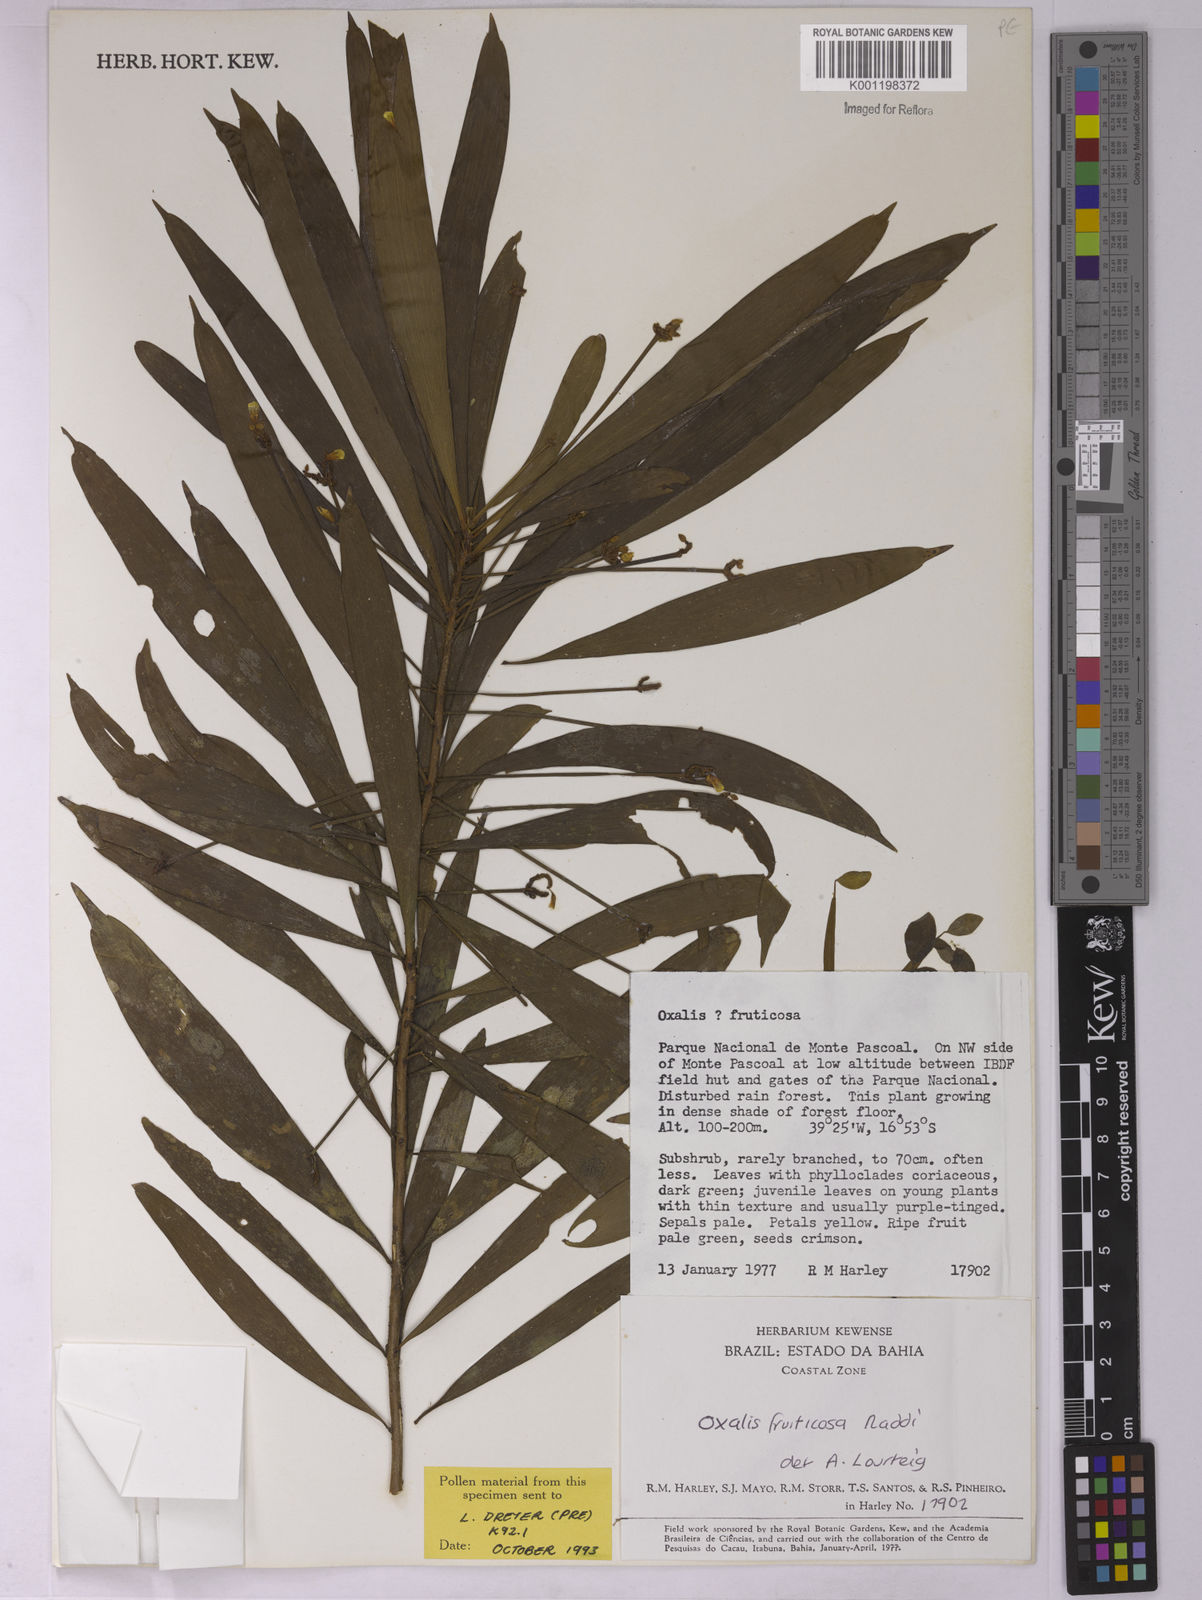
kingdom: Plantae
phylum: Tracheophyta
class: Magnoliopsida
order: Oxalidales
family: Oxalidaceae
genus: Oxalis
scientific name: Oxalis fruticosa
